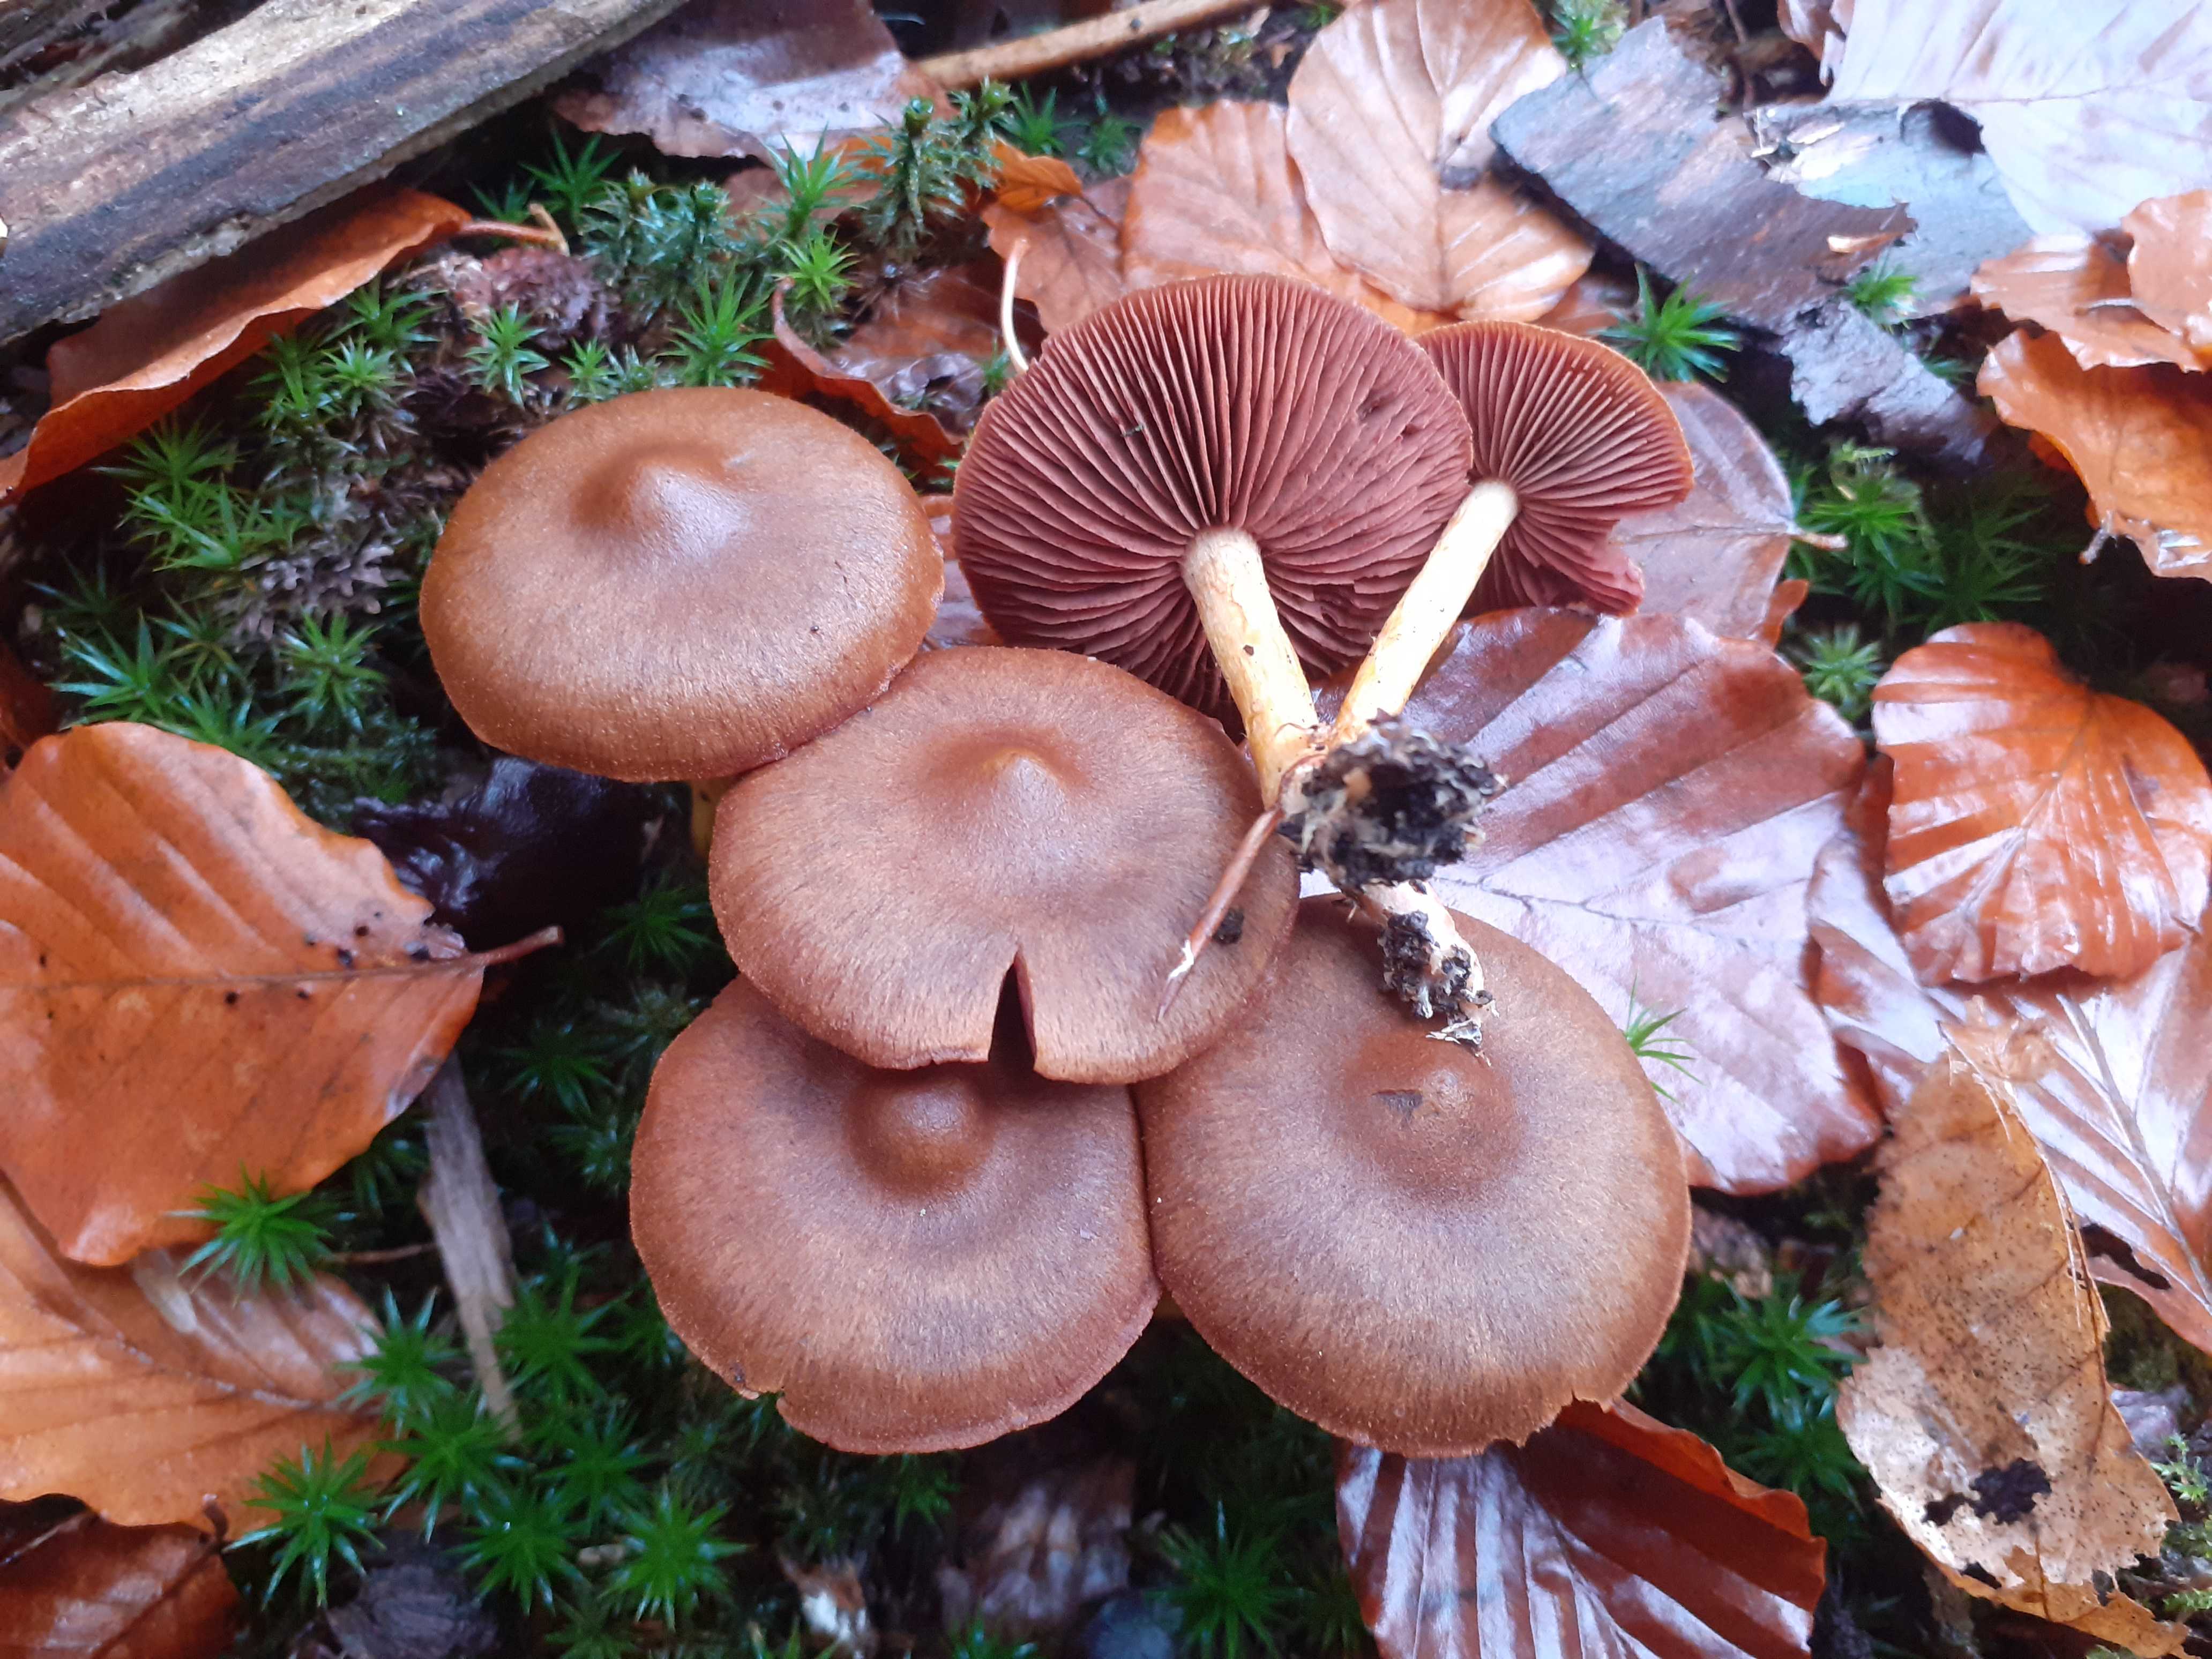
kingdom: Fungi
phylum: Basidiomycota
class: Agaricomycetes
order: Agaricales
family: Cortinariaceae
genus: Cortinarius
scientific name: Cortinarius
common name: cinnoberbladet slørhat
